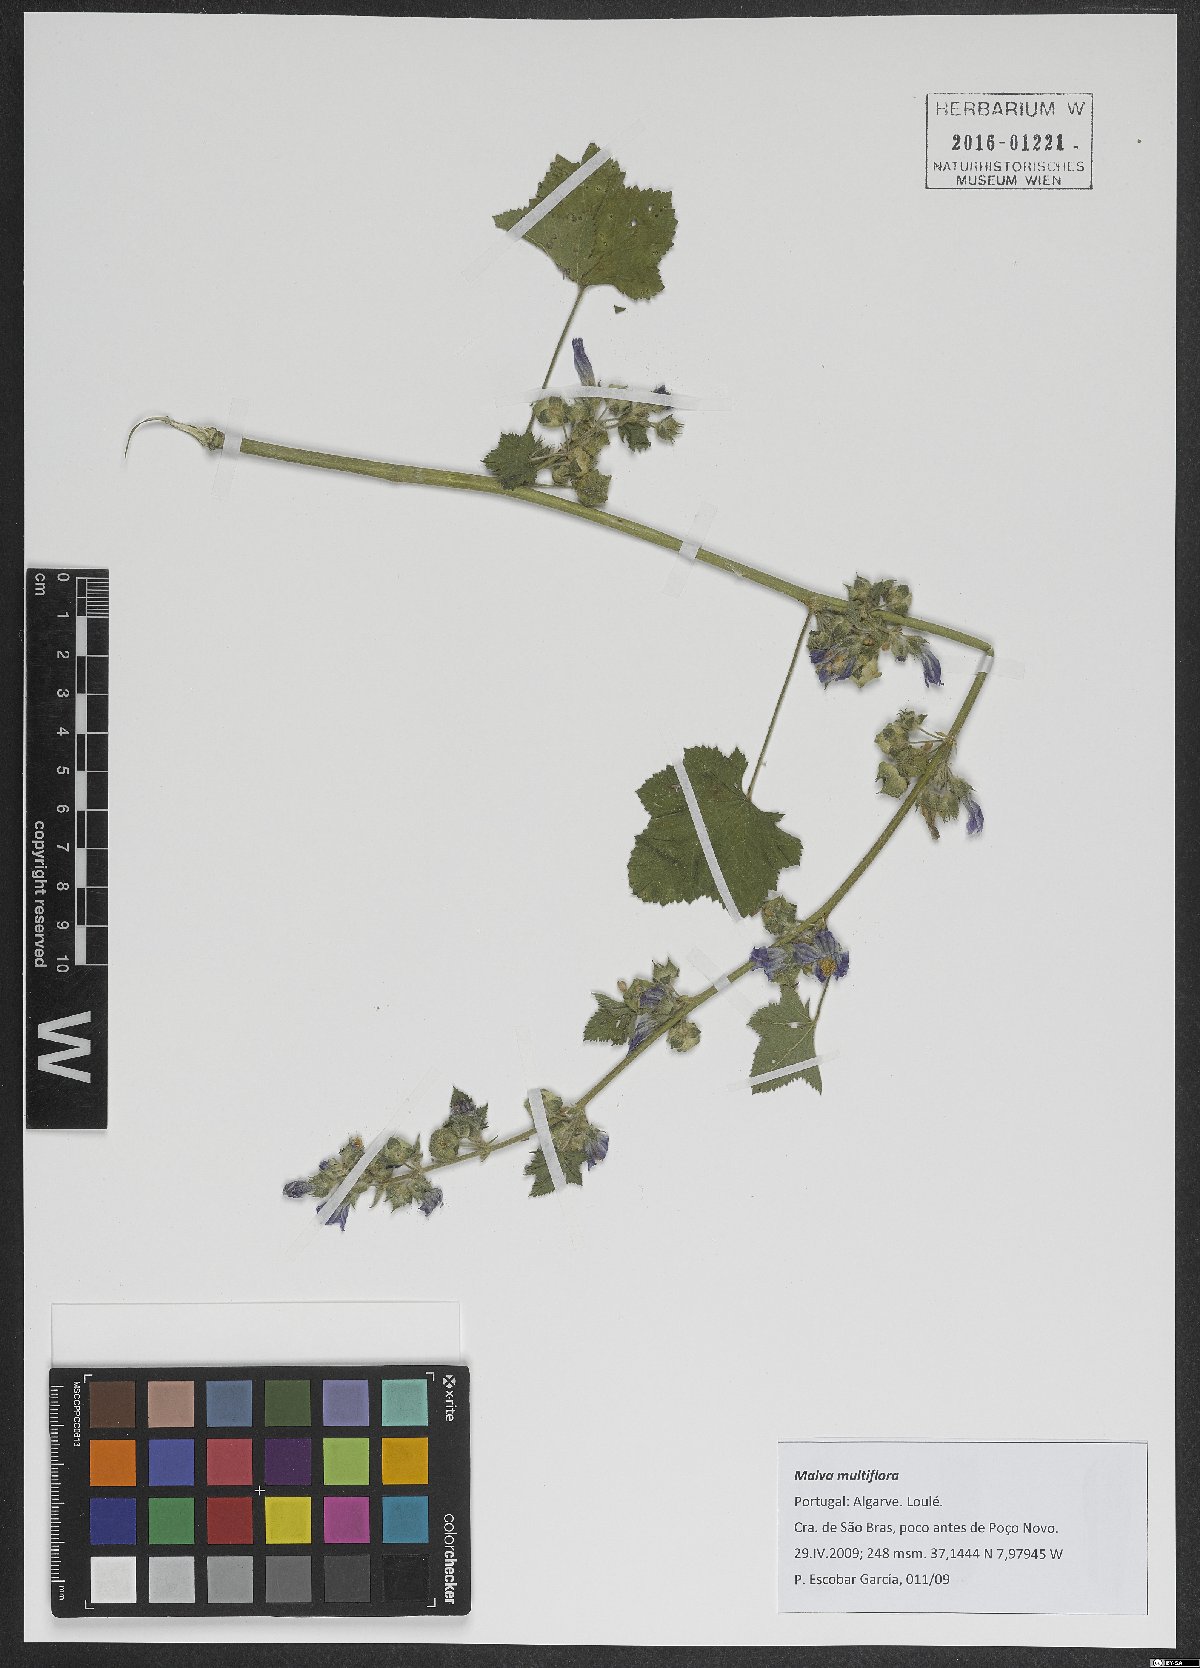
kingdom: Plantae
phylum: Tracheophyta
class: Magnoliopsida
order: Malvales
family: Malvaceae
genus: Malva
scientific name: Malva multiflora
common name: Cheeseweed
